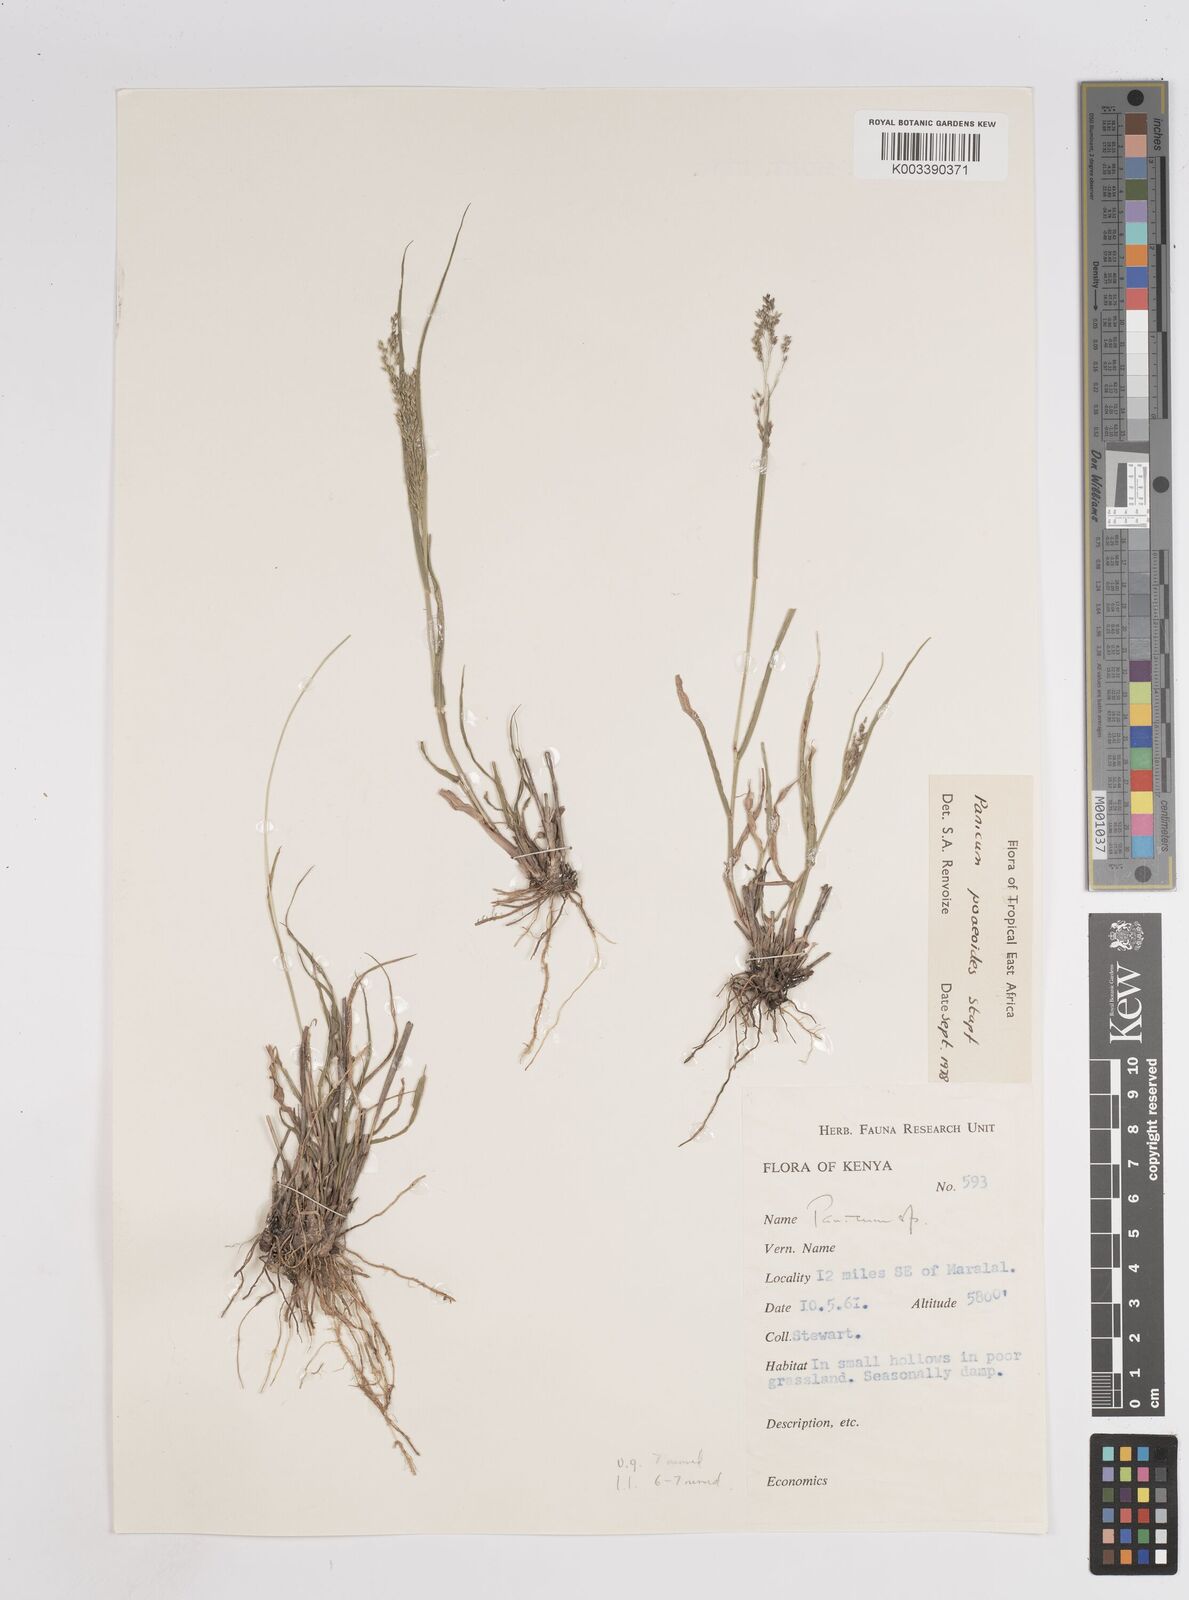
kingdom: Plantae
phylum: Tracheophyta
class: Liliopsida
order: Poales
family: Poaceae
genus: Panicum
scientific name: Panicum
